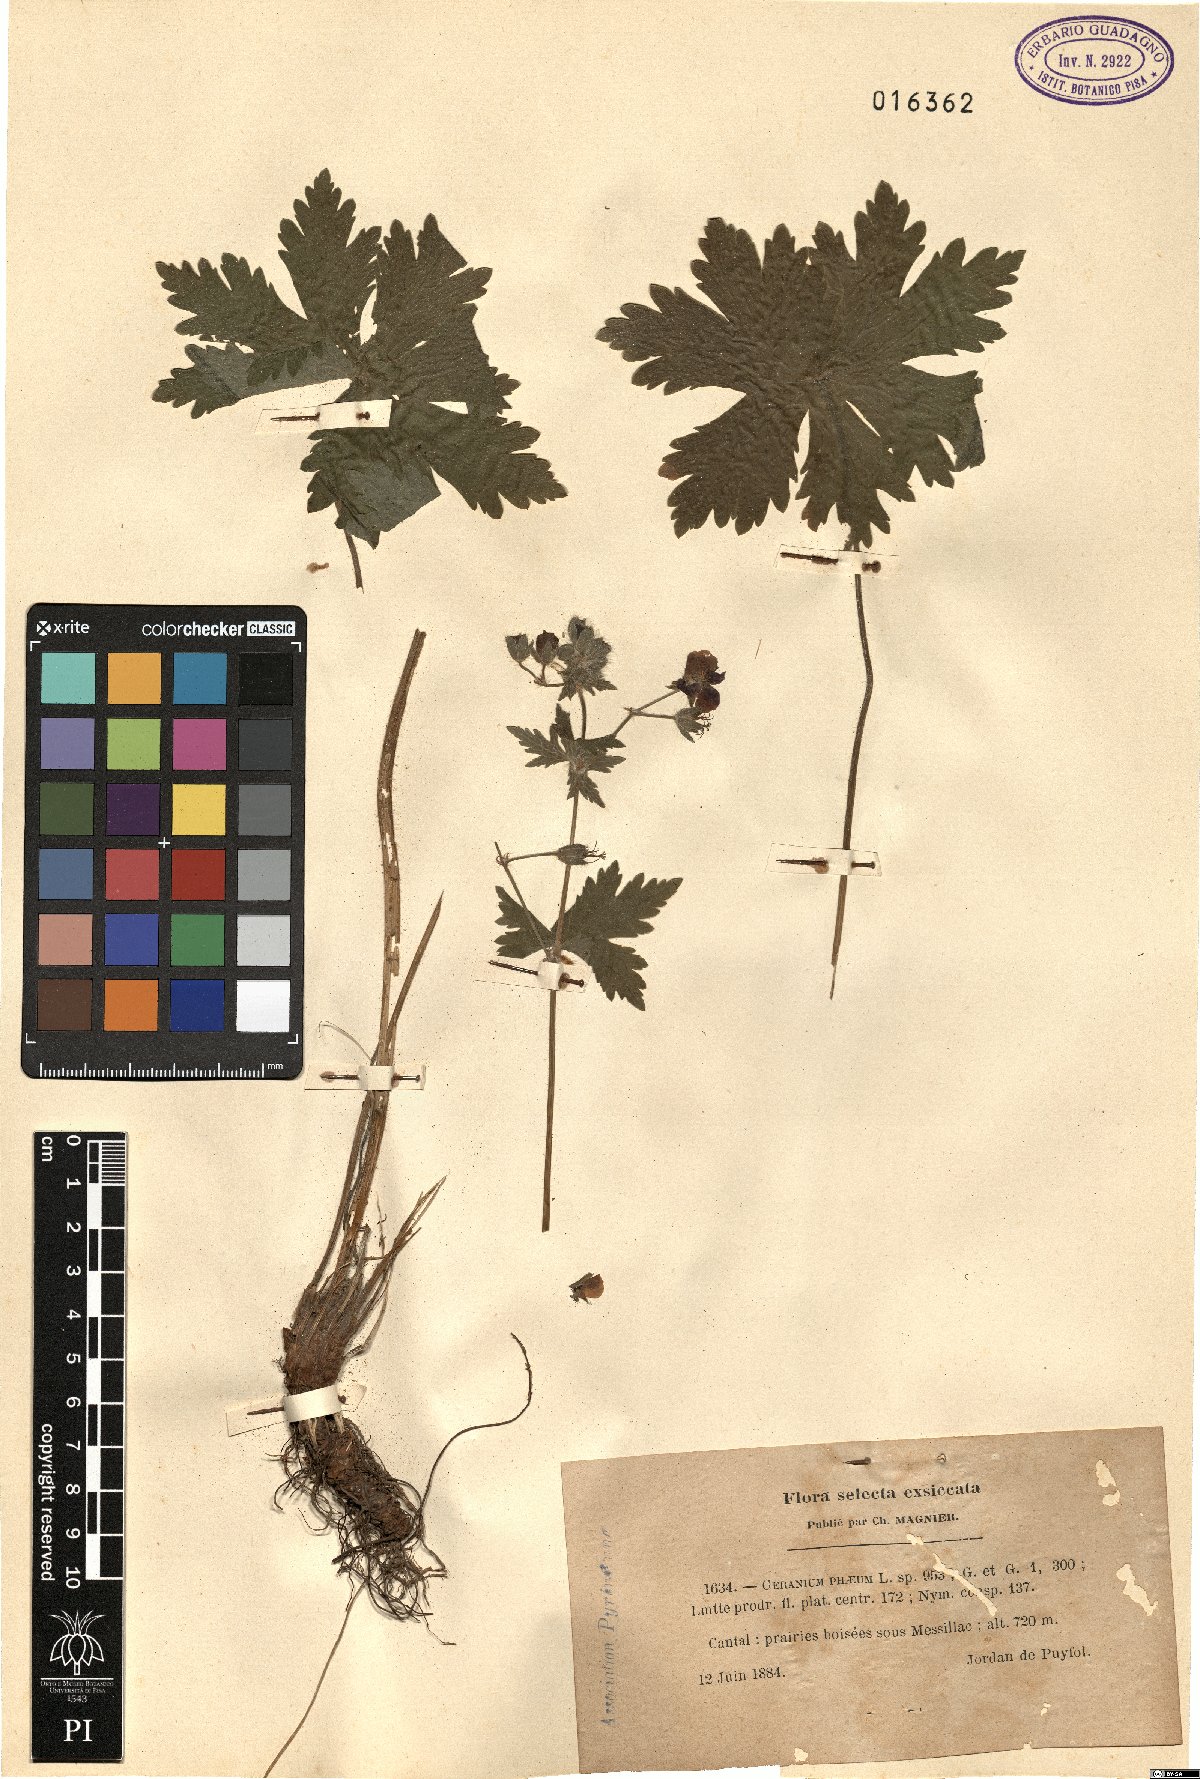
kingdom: Plantae
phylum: Tracheophyta
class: Magnoliopsida
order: Geraniales
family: Geraniaceae
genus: Geranium
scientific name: Geranium phaeum
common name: Dusky crane's-bill
